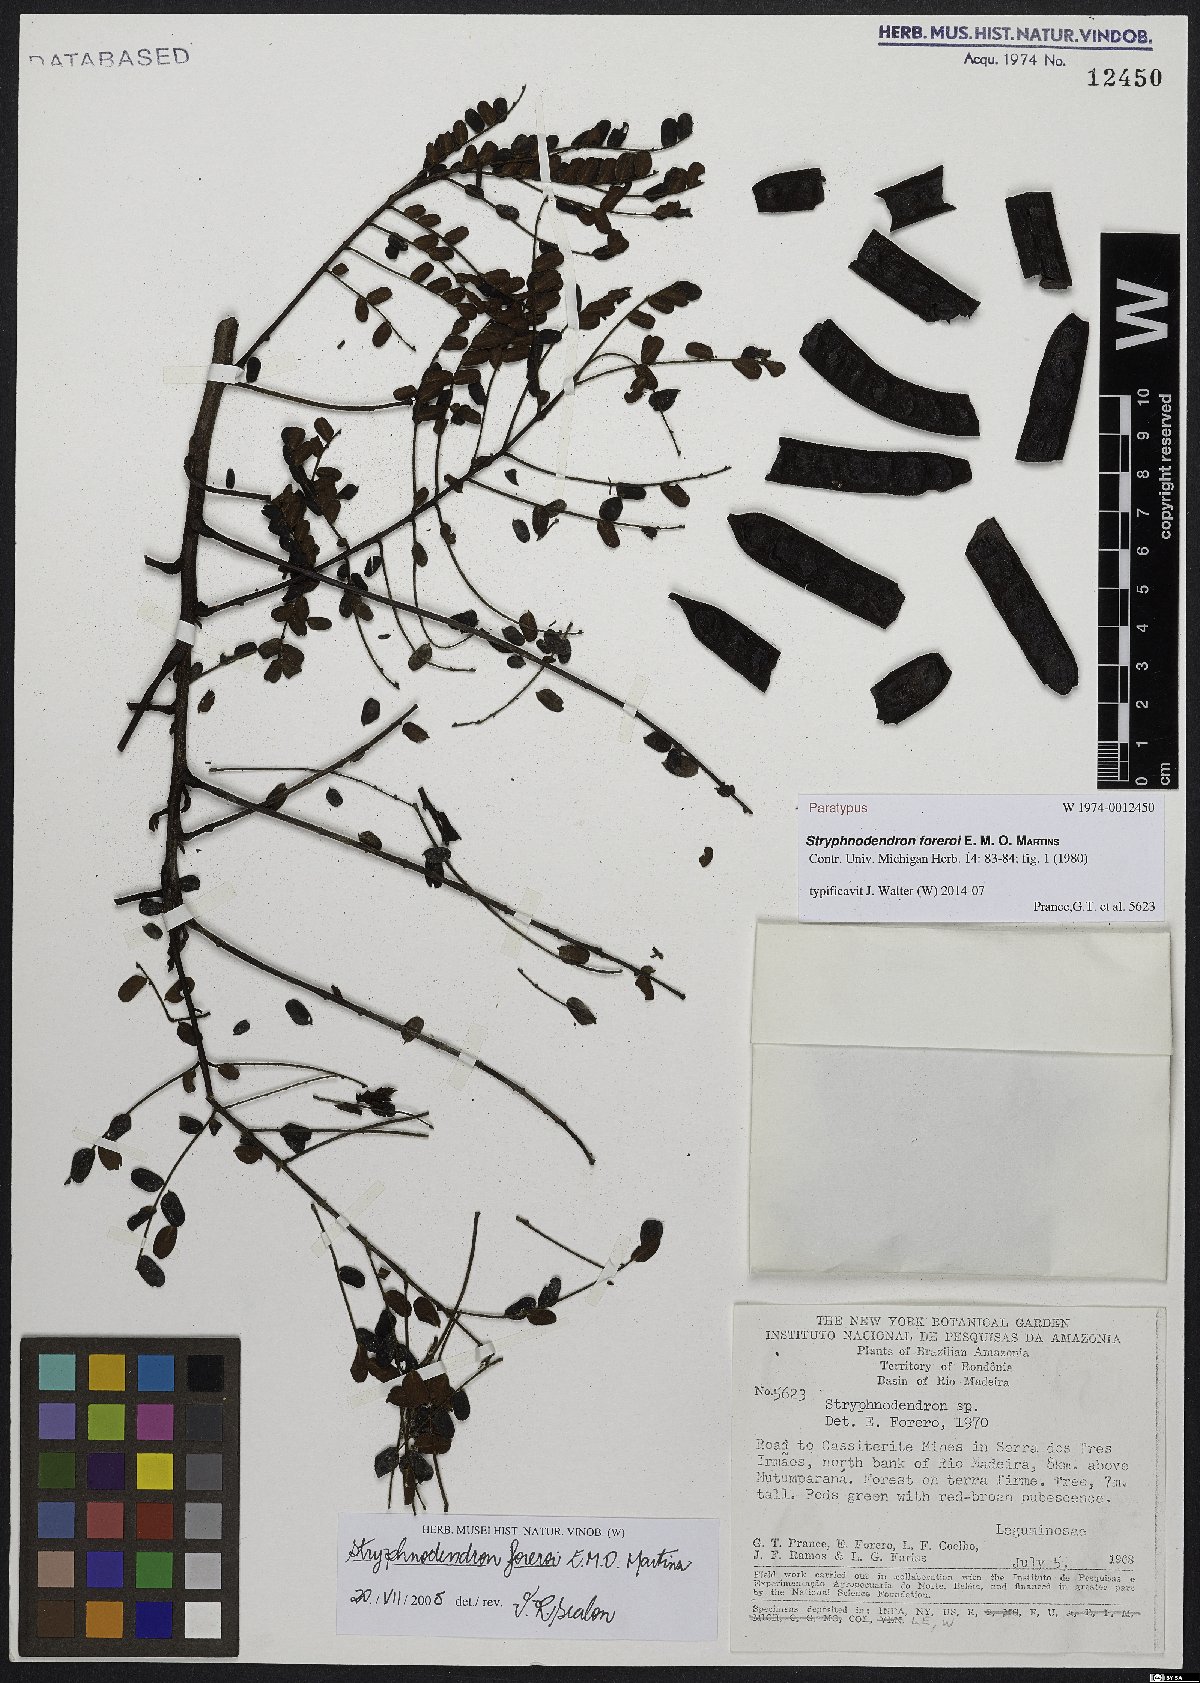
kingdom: Plantae
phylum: Tracheophyta
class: Magnoliopsida
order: Fabales
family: Fabaceae
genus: Stryphnodendron
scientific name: Stryphnodendron foreroi
